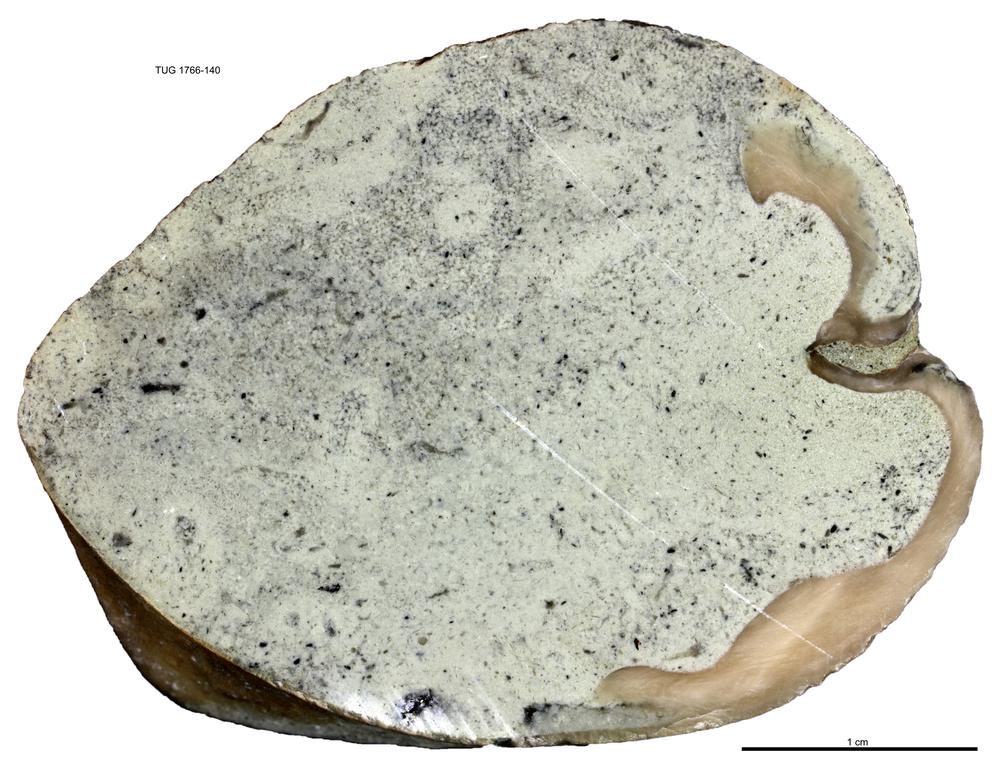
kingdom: Animalia
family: Coprulidae
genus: Coprulus
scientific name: Coprulus
